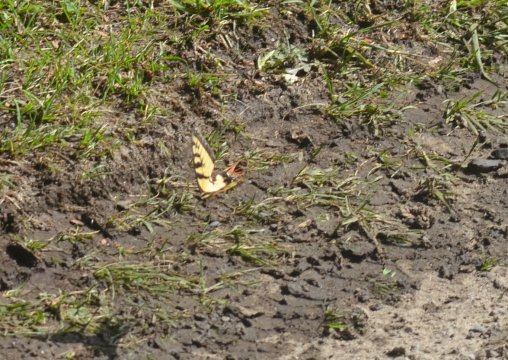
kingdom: Animalia
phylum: Arthropoda
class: Insecta
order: Lepidoptera
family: Papilionidae
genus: Pterourus
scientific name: Pterourus glaucus
